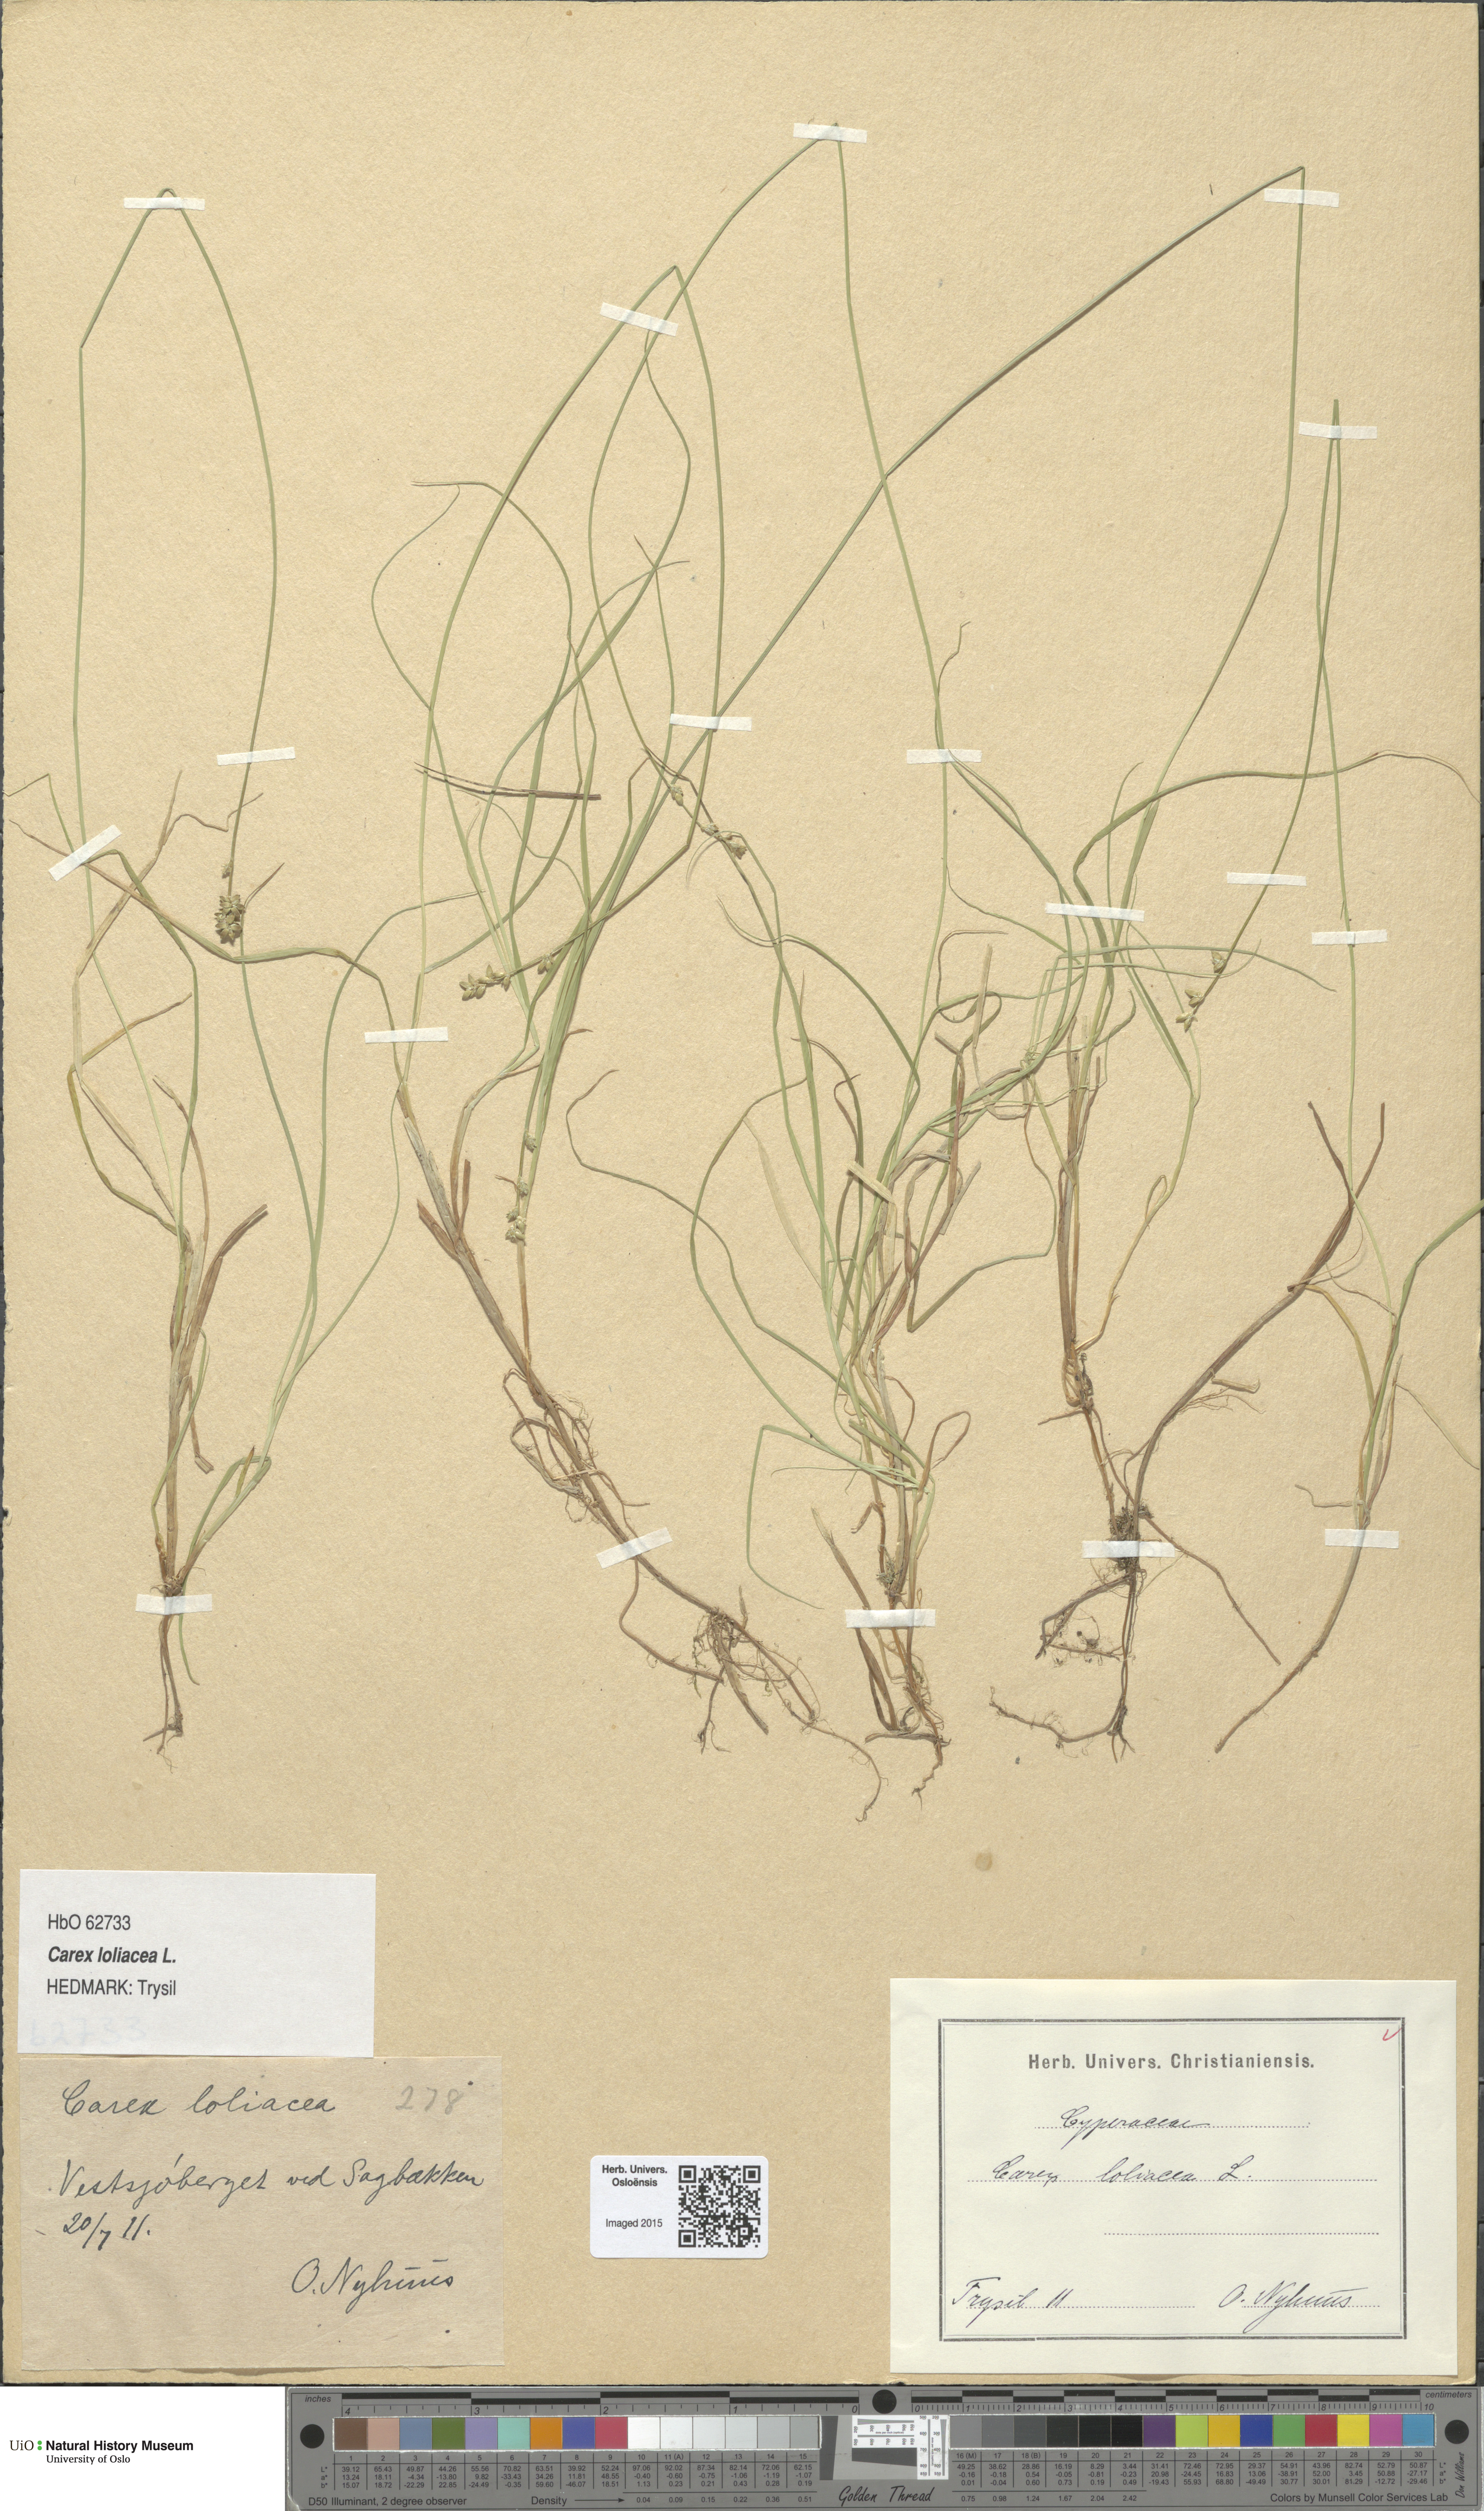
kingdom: Plantae
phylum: Tracheophyta
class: Liliopsida
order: Poales
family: Cyperaceae
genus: Carex
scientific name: Carex loliacea
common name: Ryegrass sedge
